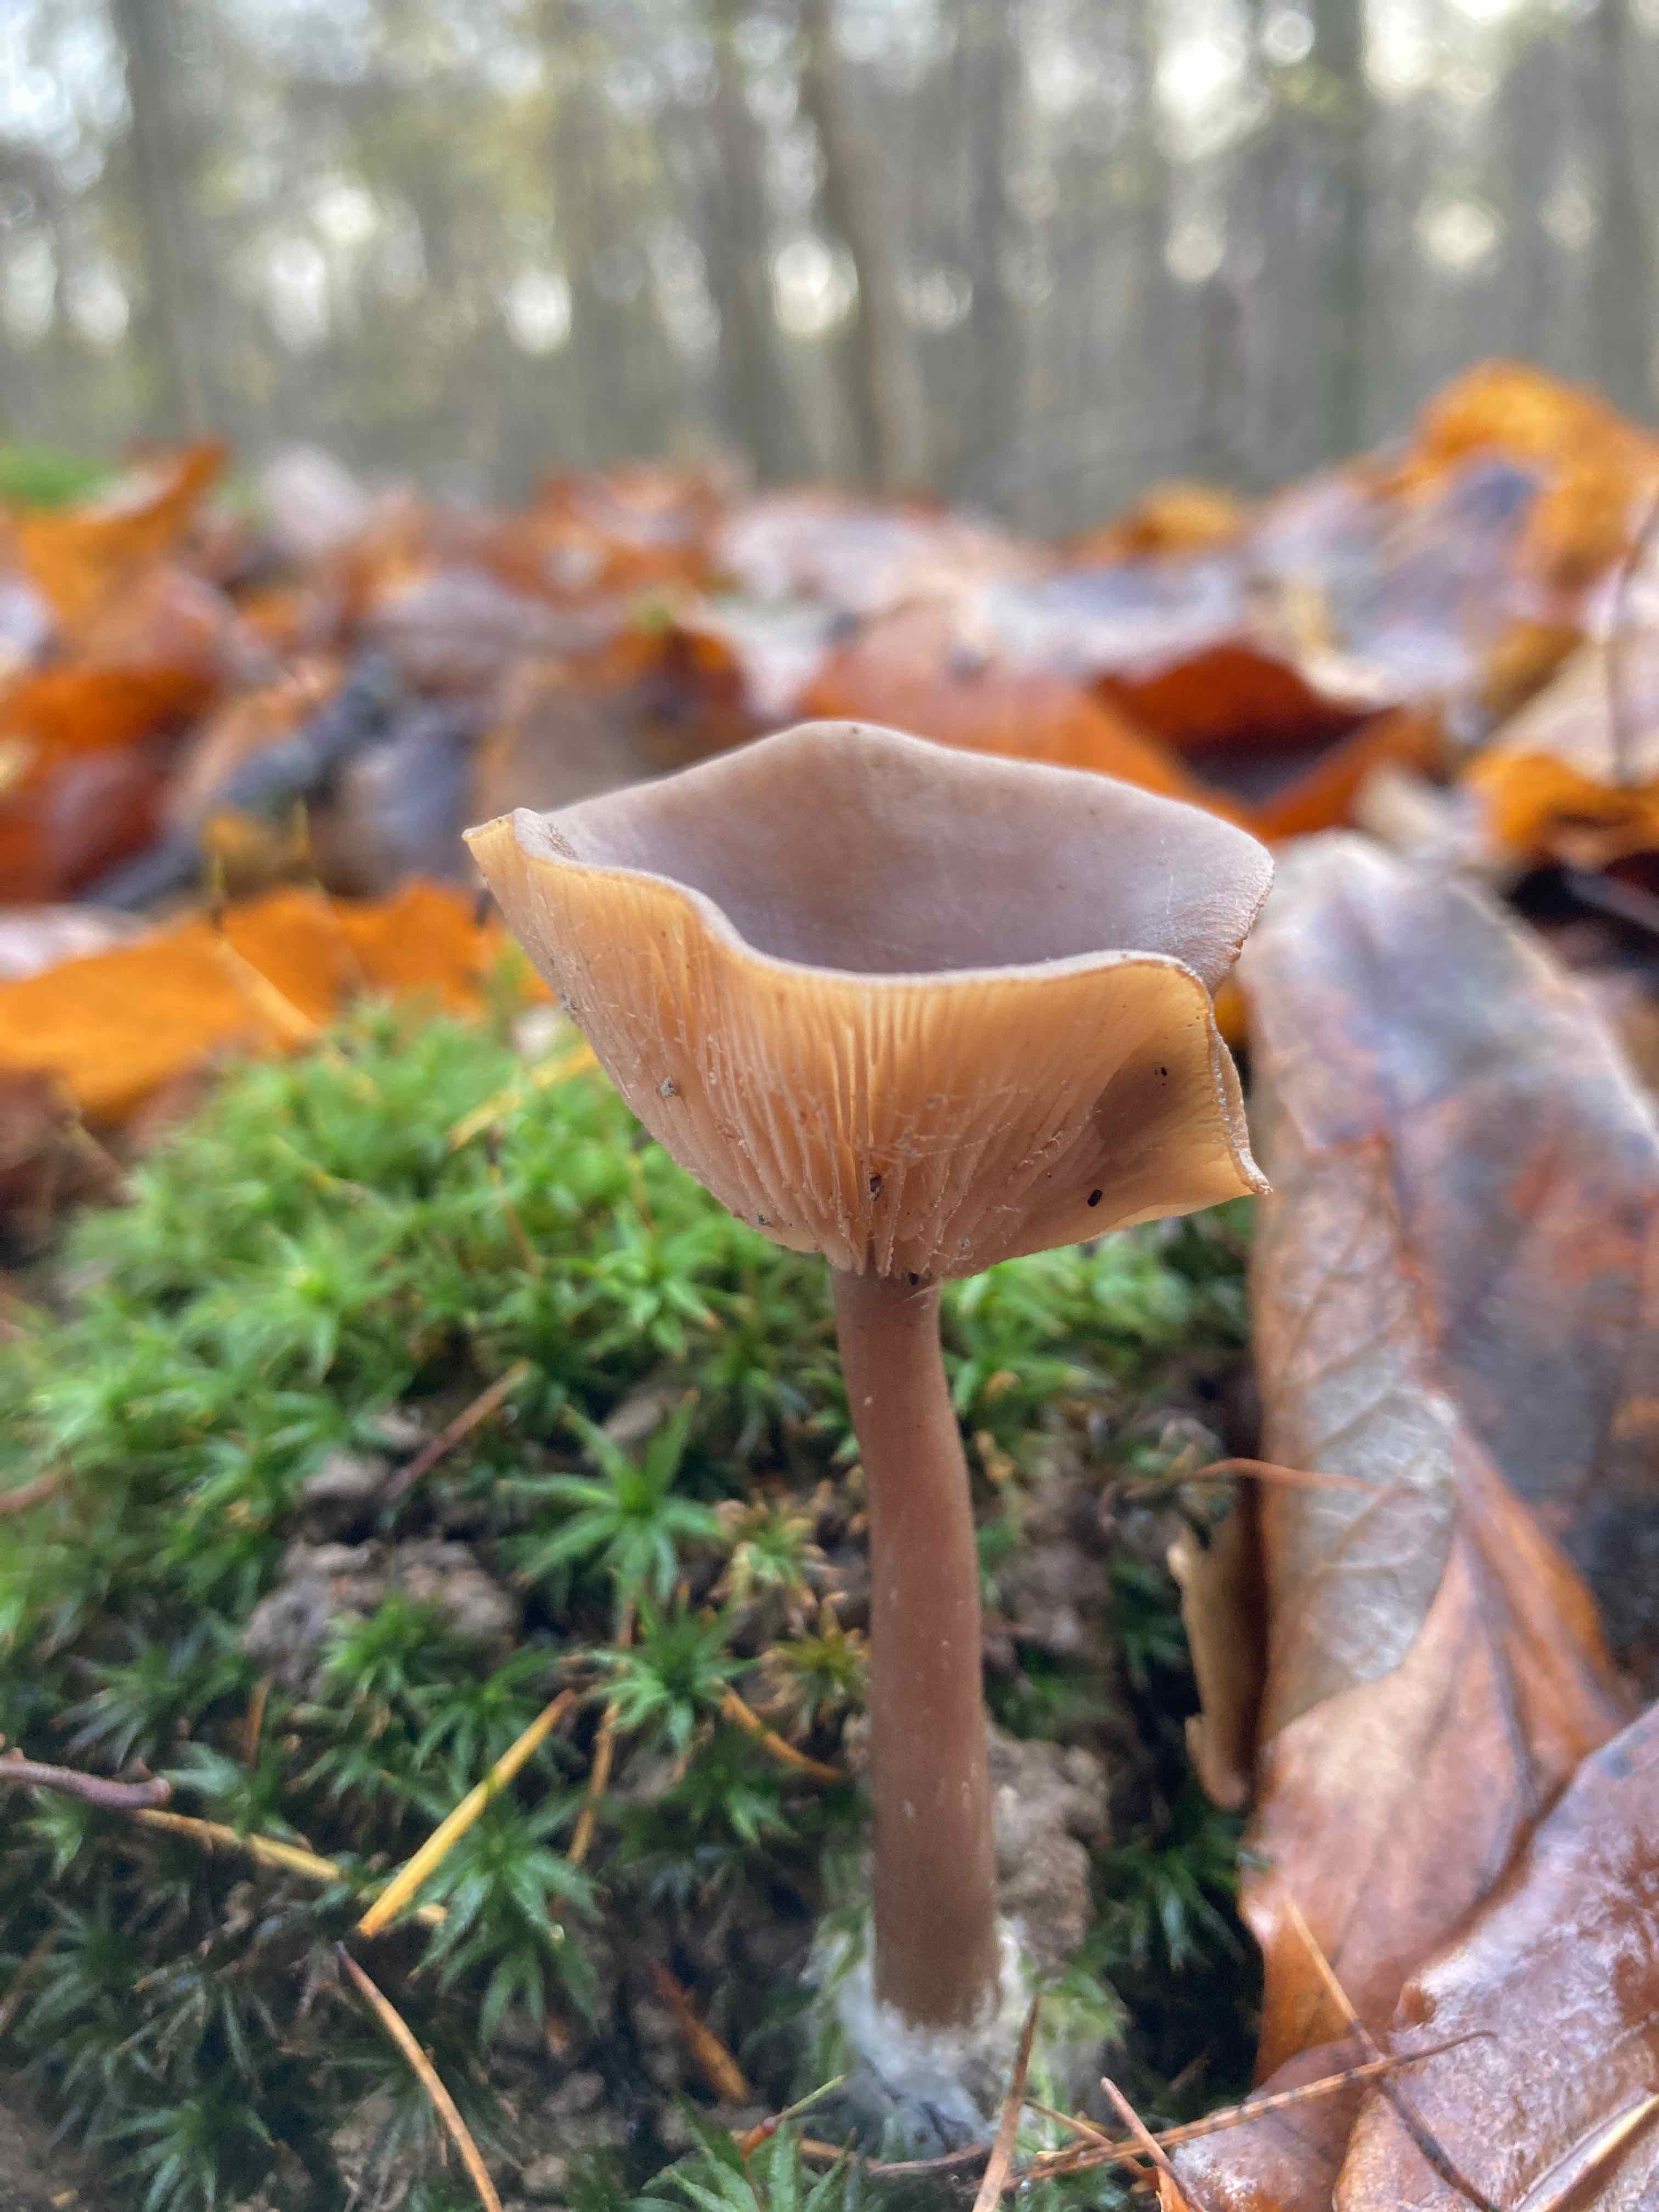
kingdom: Fungi
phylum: Basidiomycota
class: Agaricomycetes
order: Agaricales
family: Pseudoclitocybaceae
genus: Pseudoclitocybe
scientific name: Pseudoclitocybe cyathiformis
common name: almindelig bægertragthat
